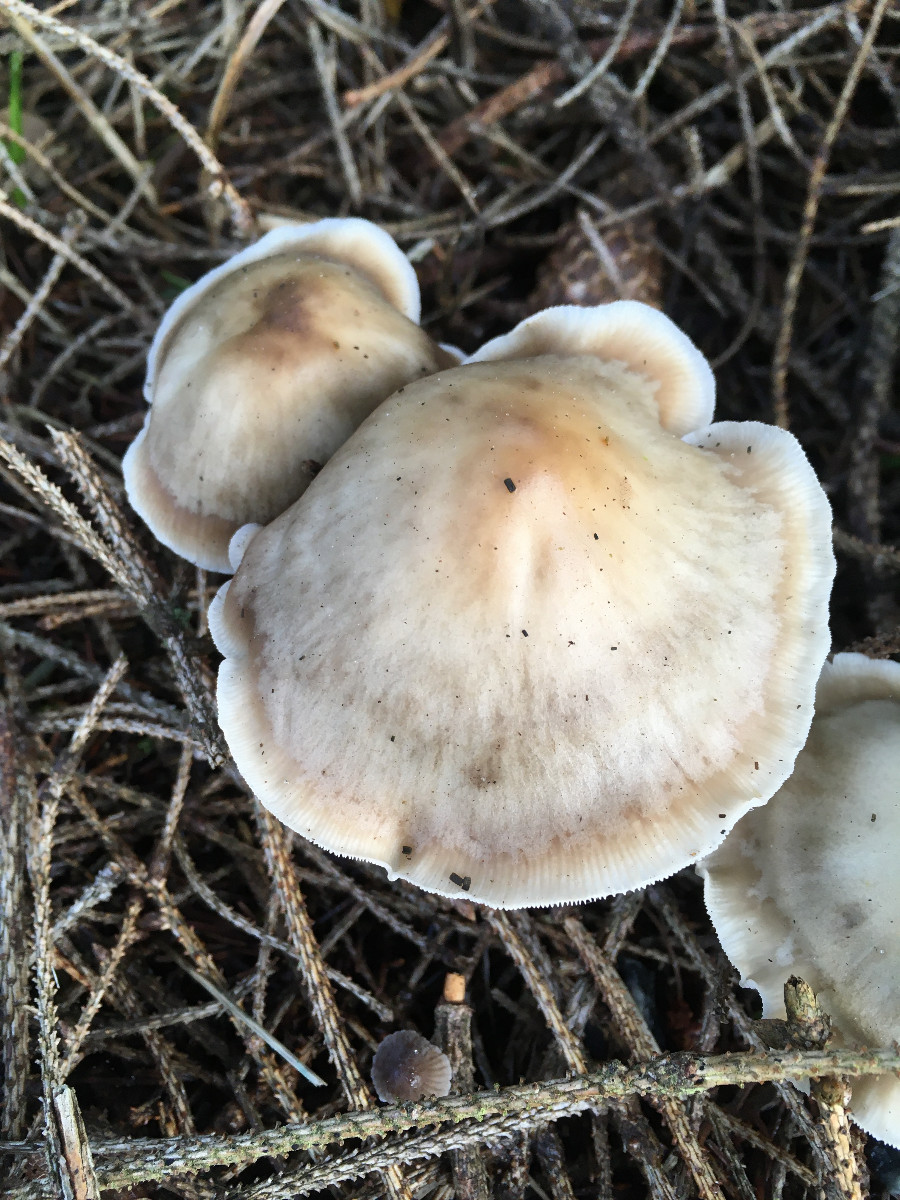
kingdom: Fungi
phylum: Basidiomycota
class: Agaricomycetes
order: Agaricales
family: Omphalotaceae
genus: Rhodocollybia
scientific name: Rhodocollybia asema
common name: horngrå fladhat
